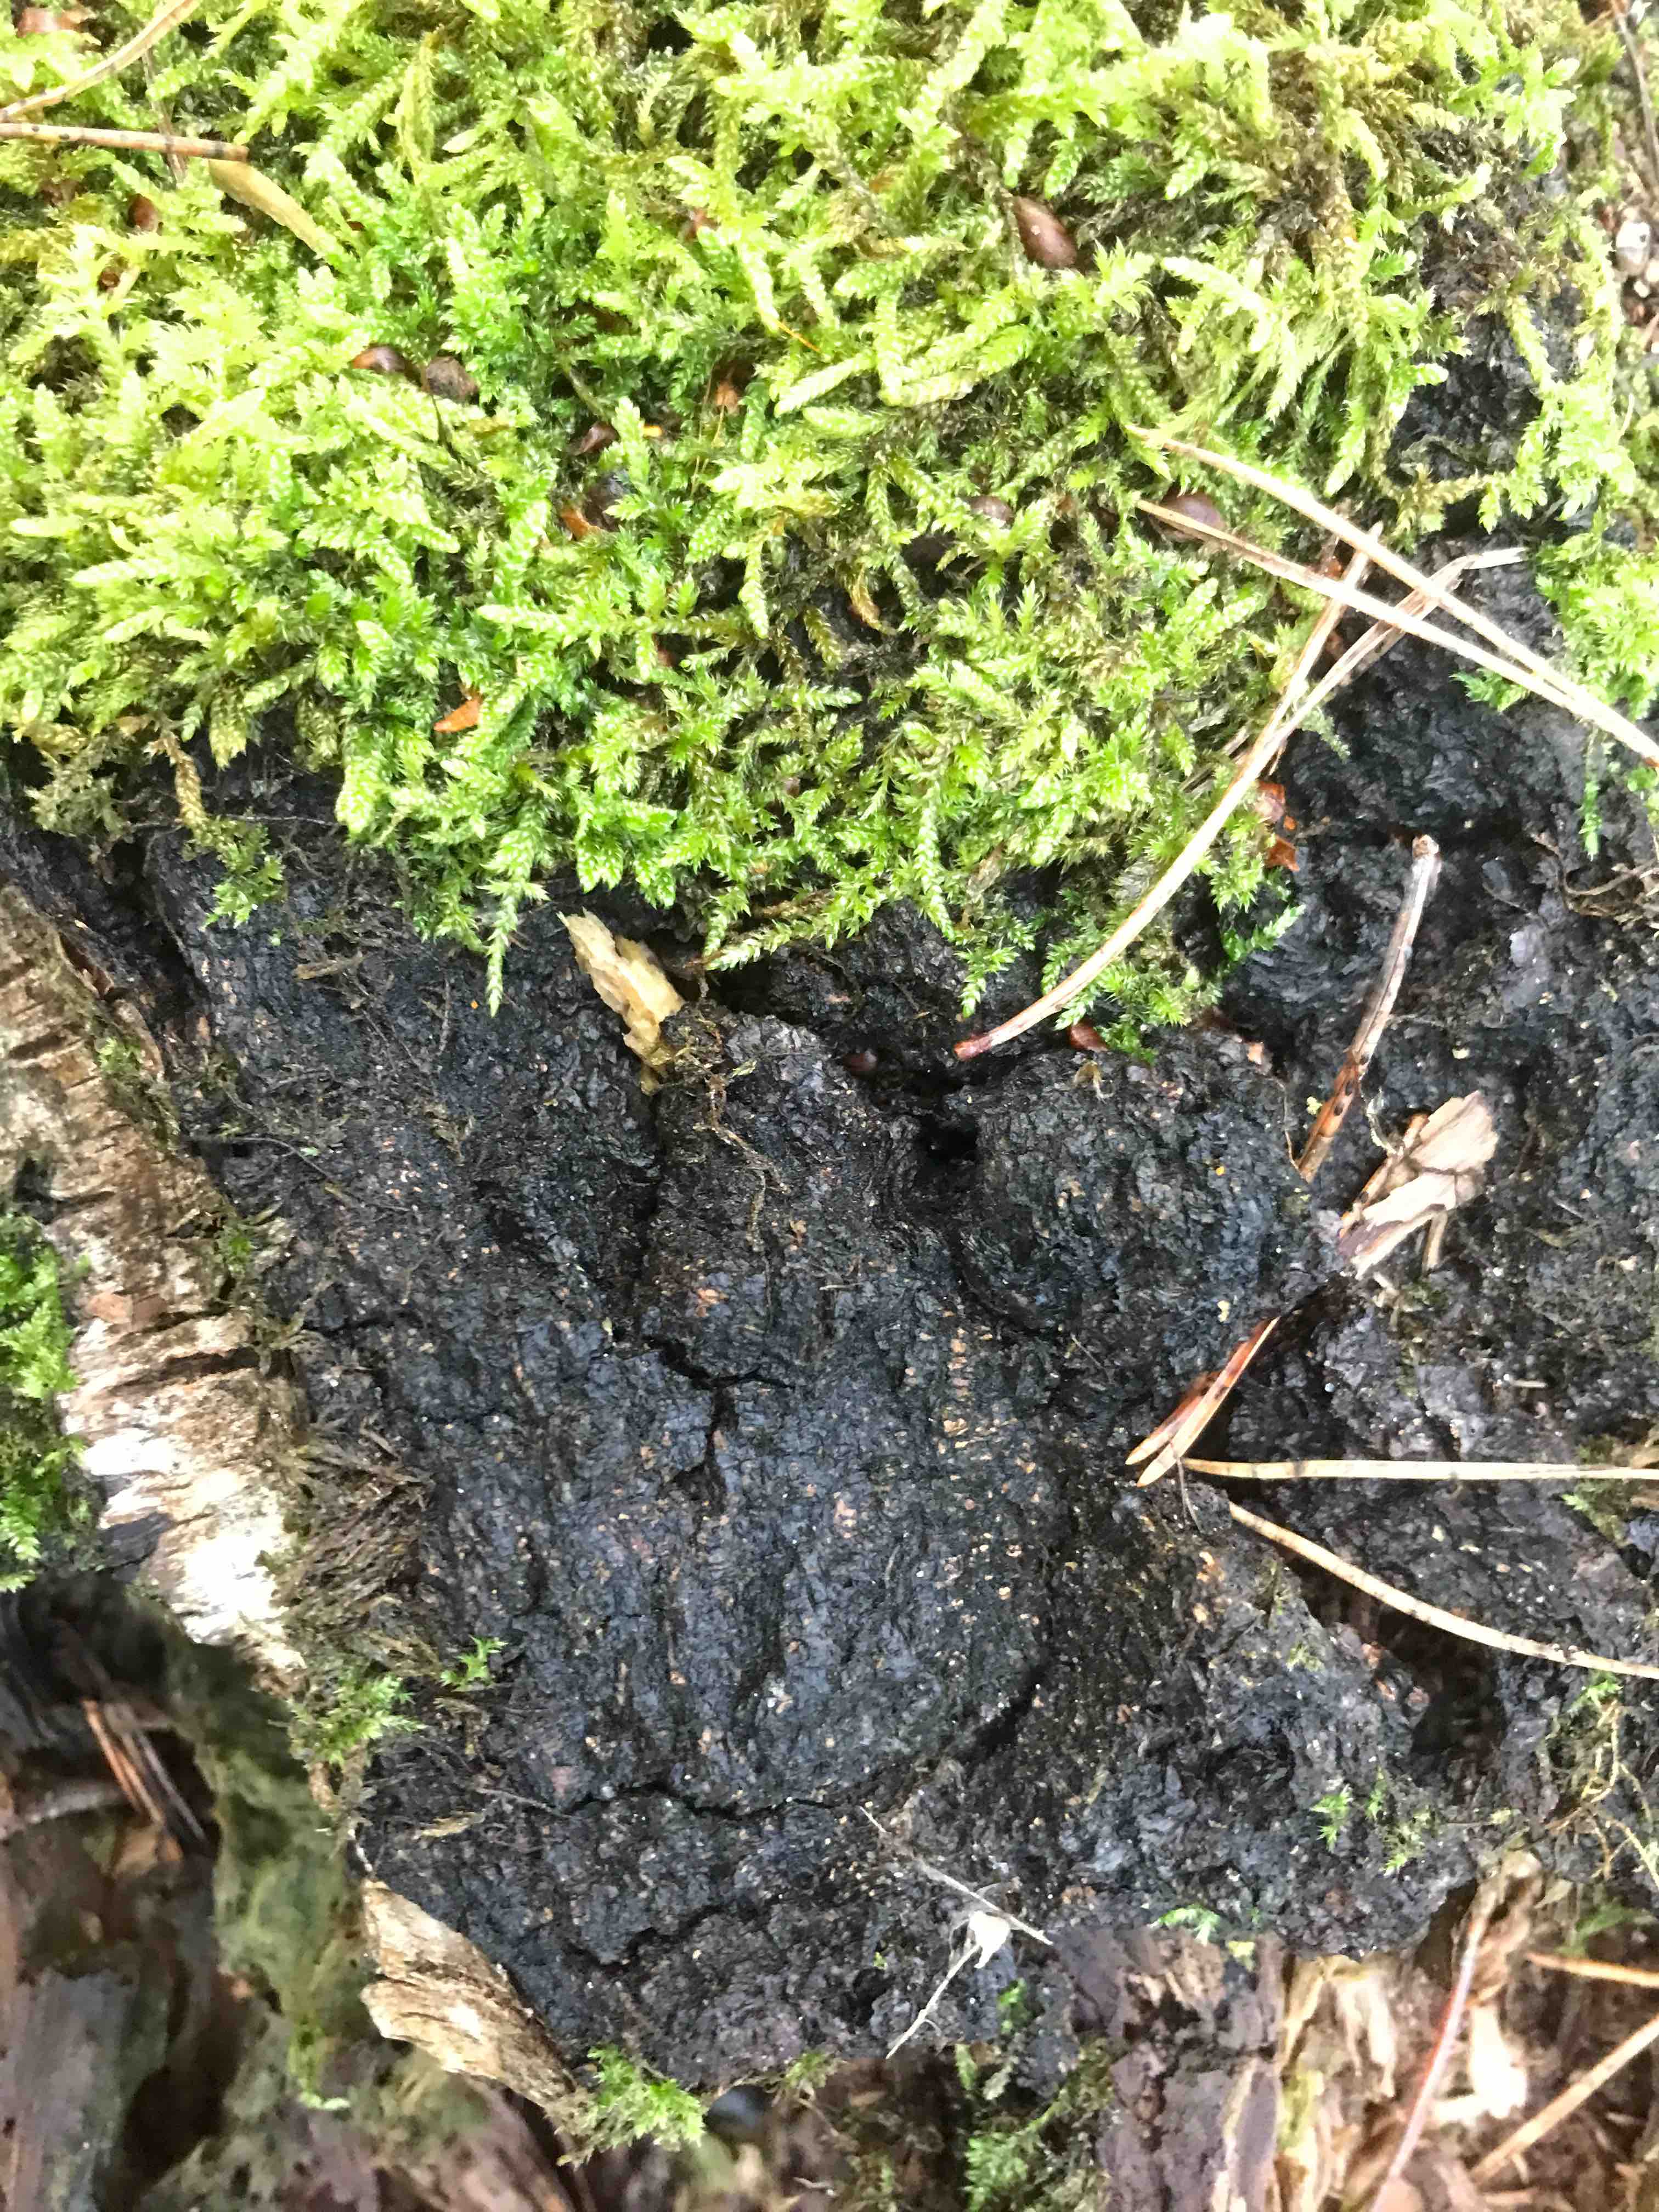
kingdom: Fungi
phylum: Basidiomycota
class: Agaricomycetes
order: Hymenochaetales
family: Hymenochaetaceae
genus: Inonotus
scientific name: Inonotus obliquus
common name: birke-spejlporesvamp
